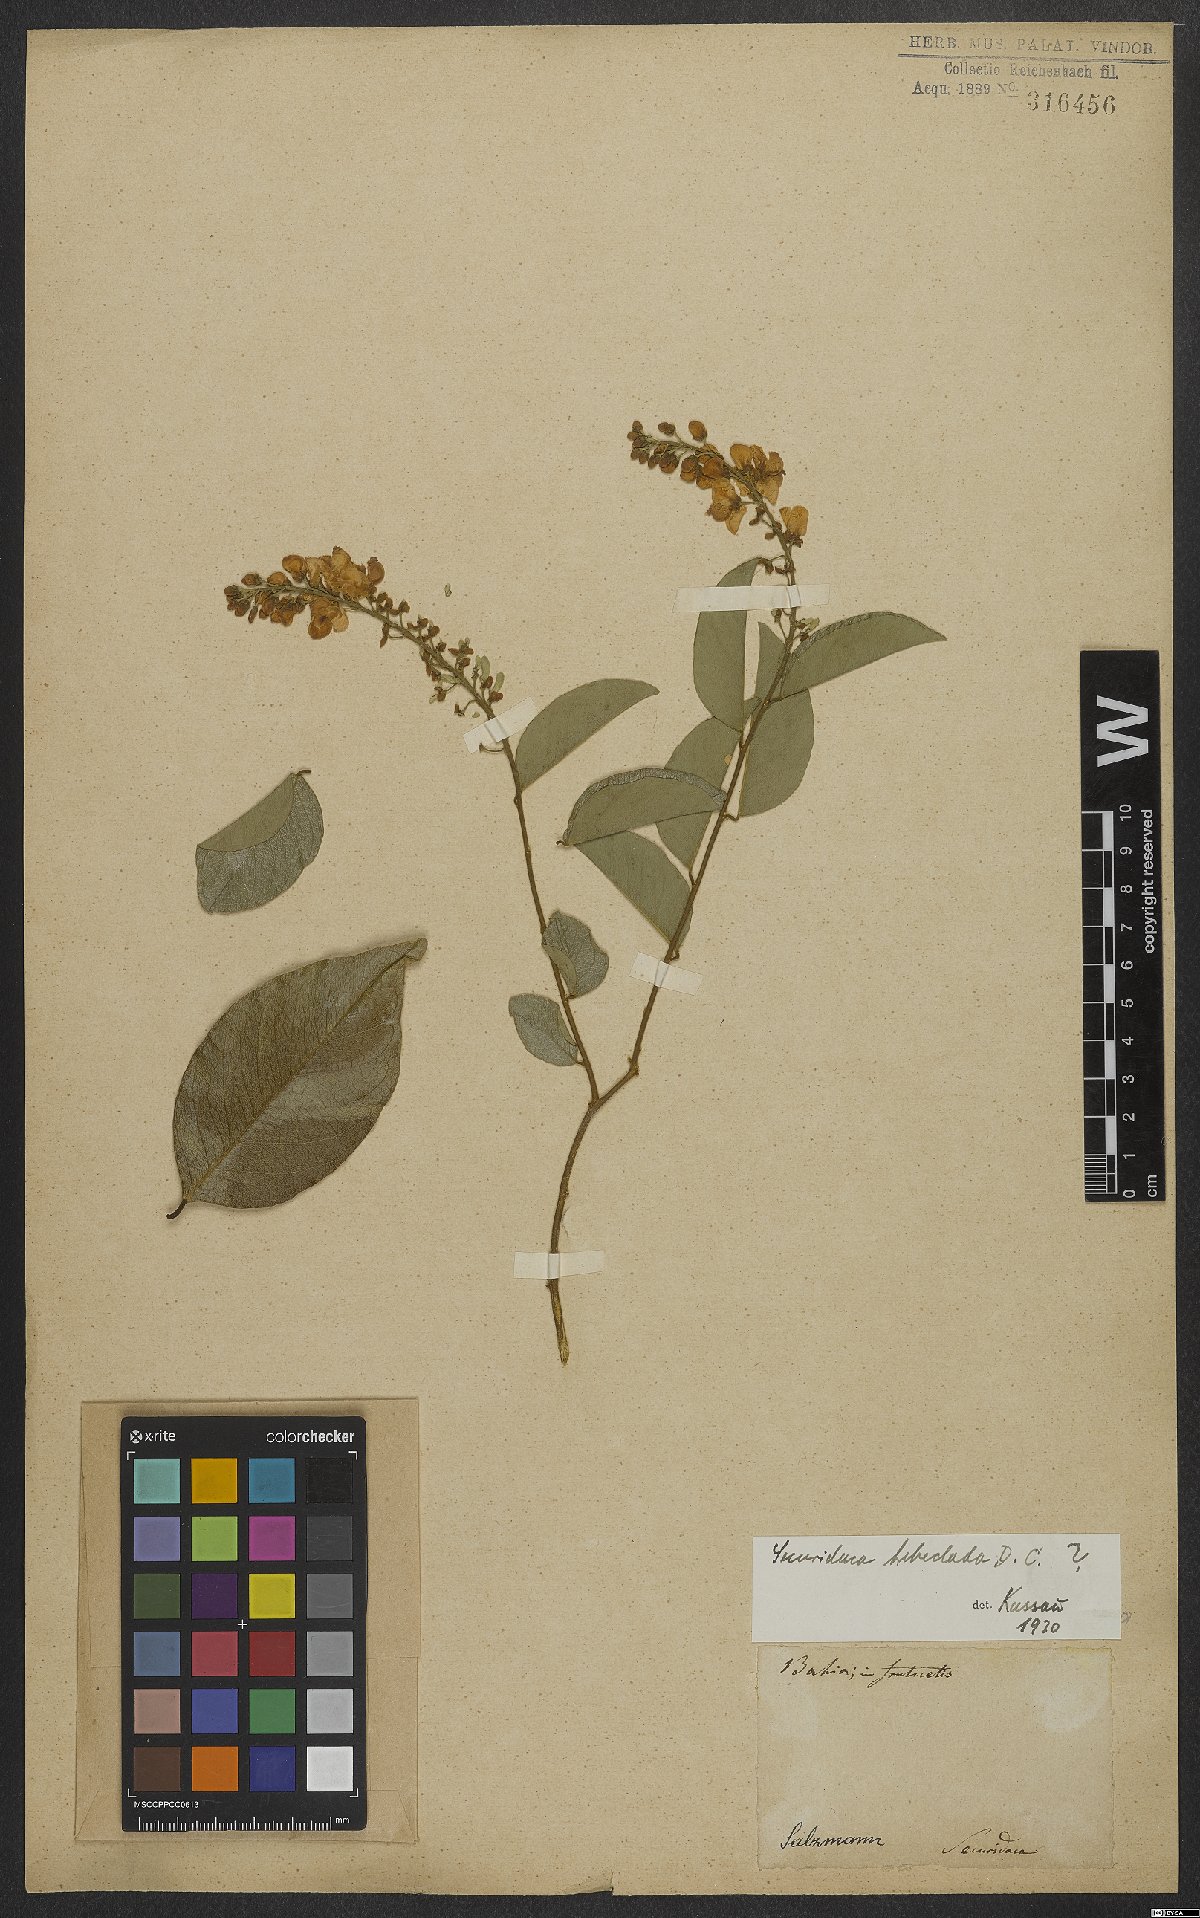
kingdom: Plantae
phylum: Tracheophyta
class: Magnoliopsida
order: Fabales
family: Polygalaceae
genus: Bredemeyera
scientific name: Bredemeyera hebeclada
